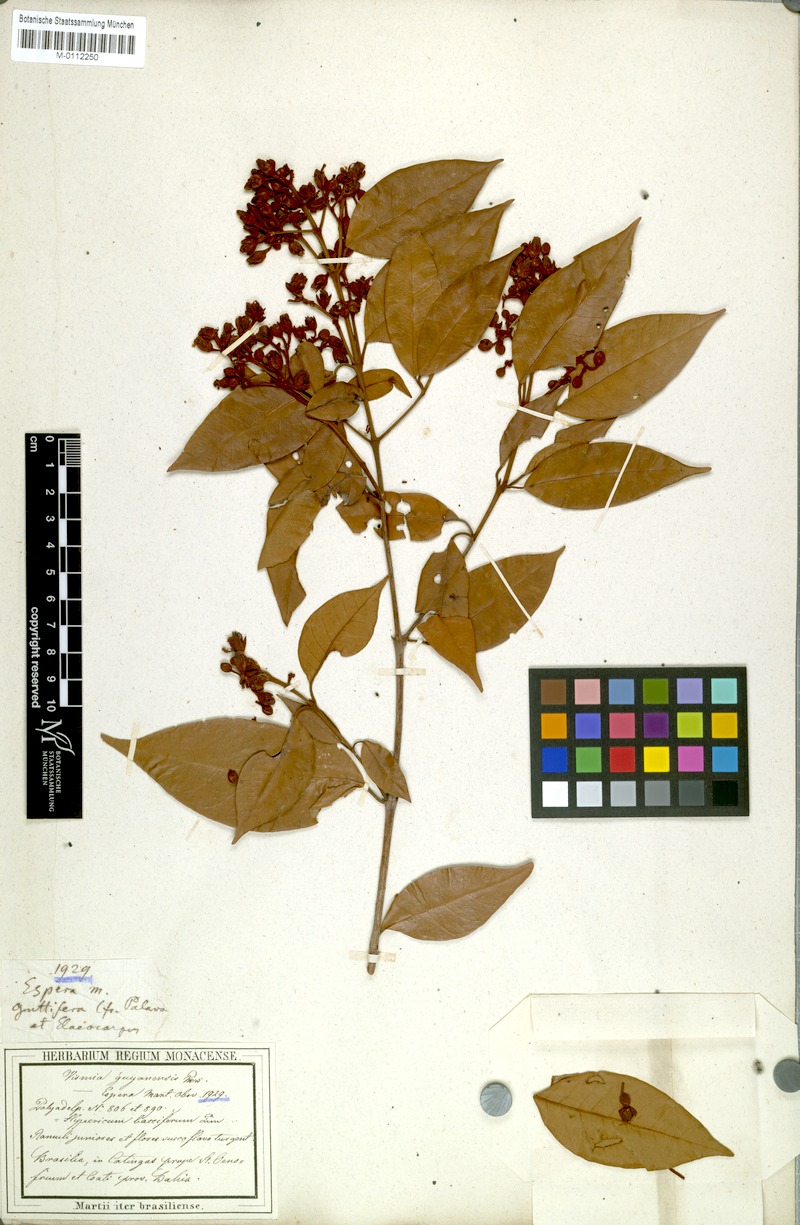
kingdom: Plantae
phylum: Tracheophyta
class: Magnoliopsida
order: Malpighiales
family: Hypericaceae
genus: Vismia
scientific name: Vismia guianensis
